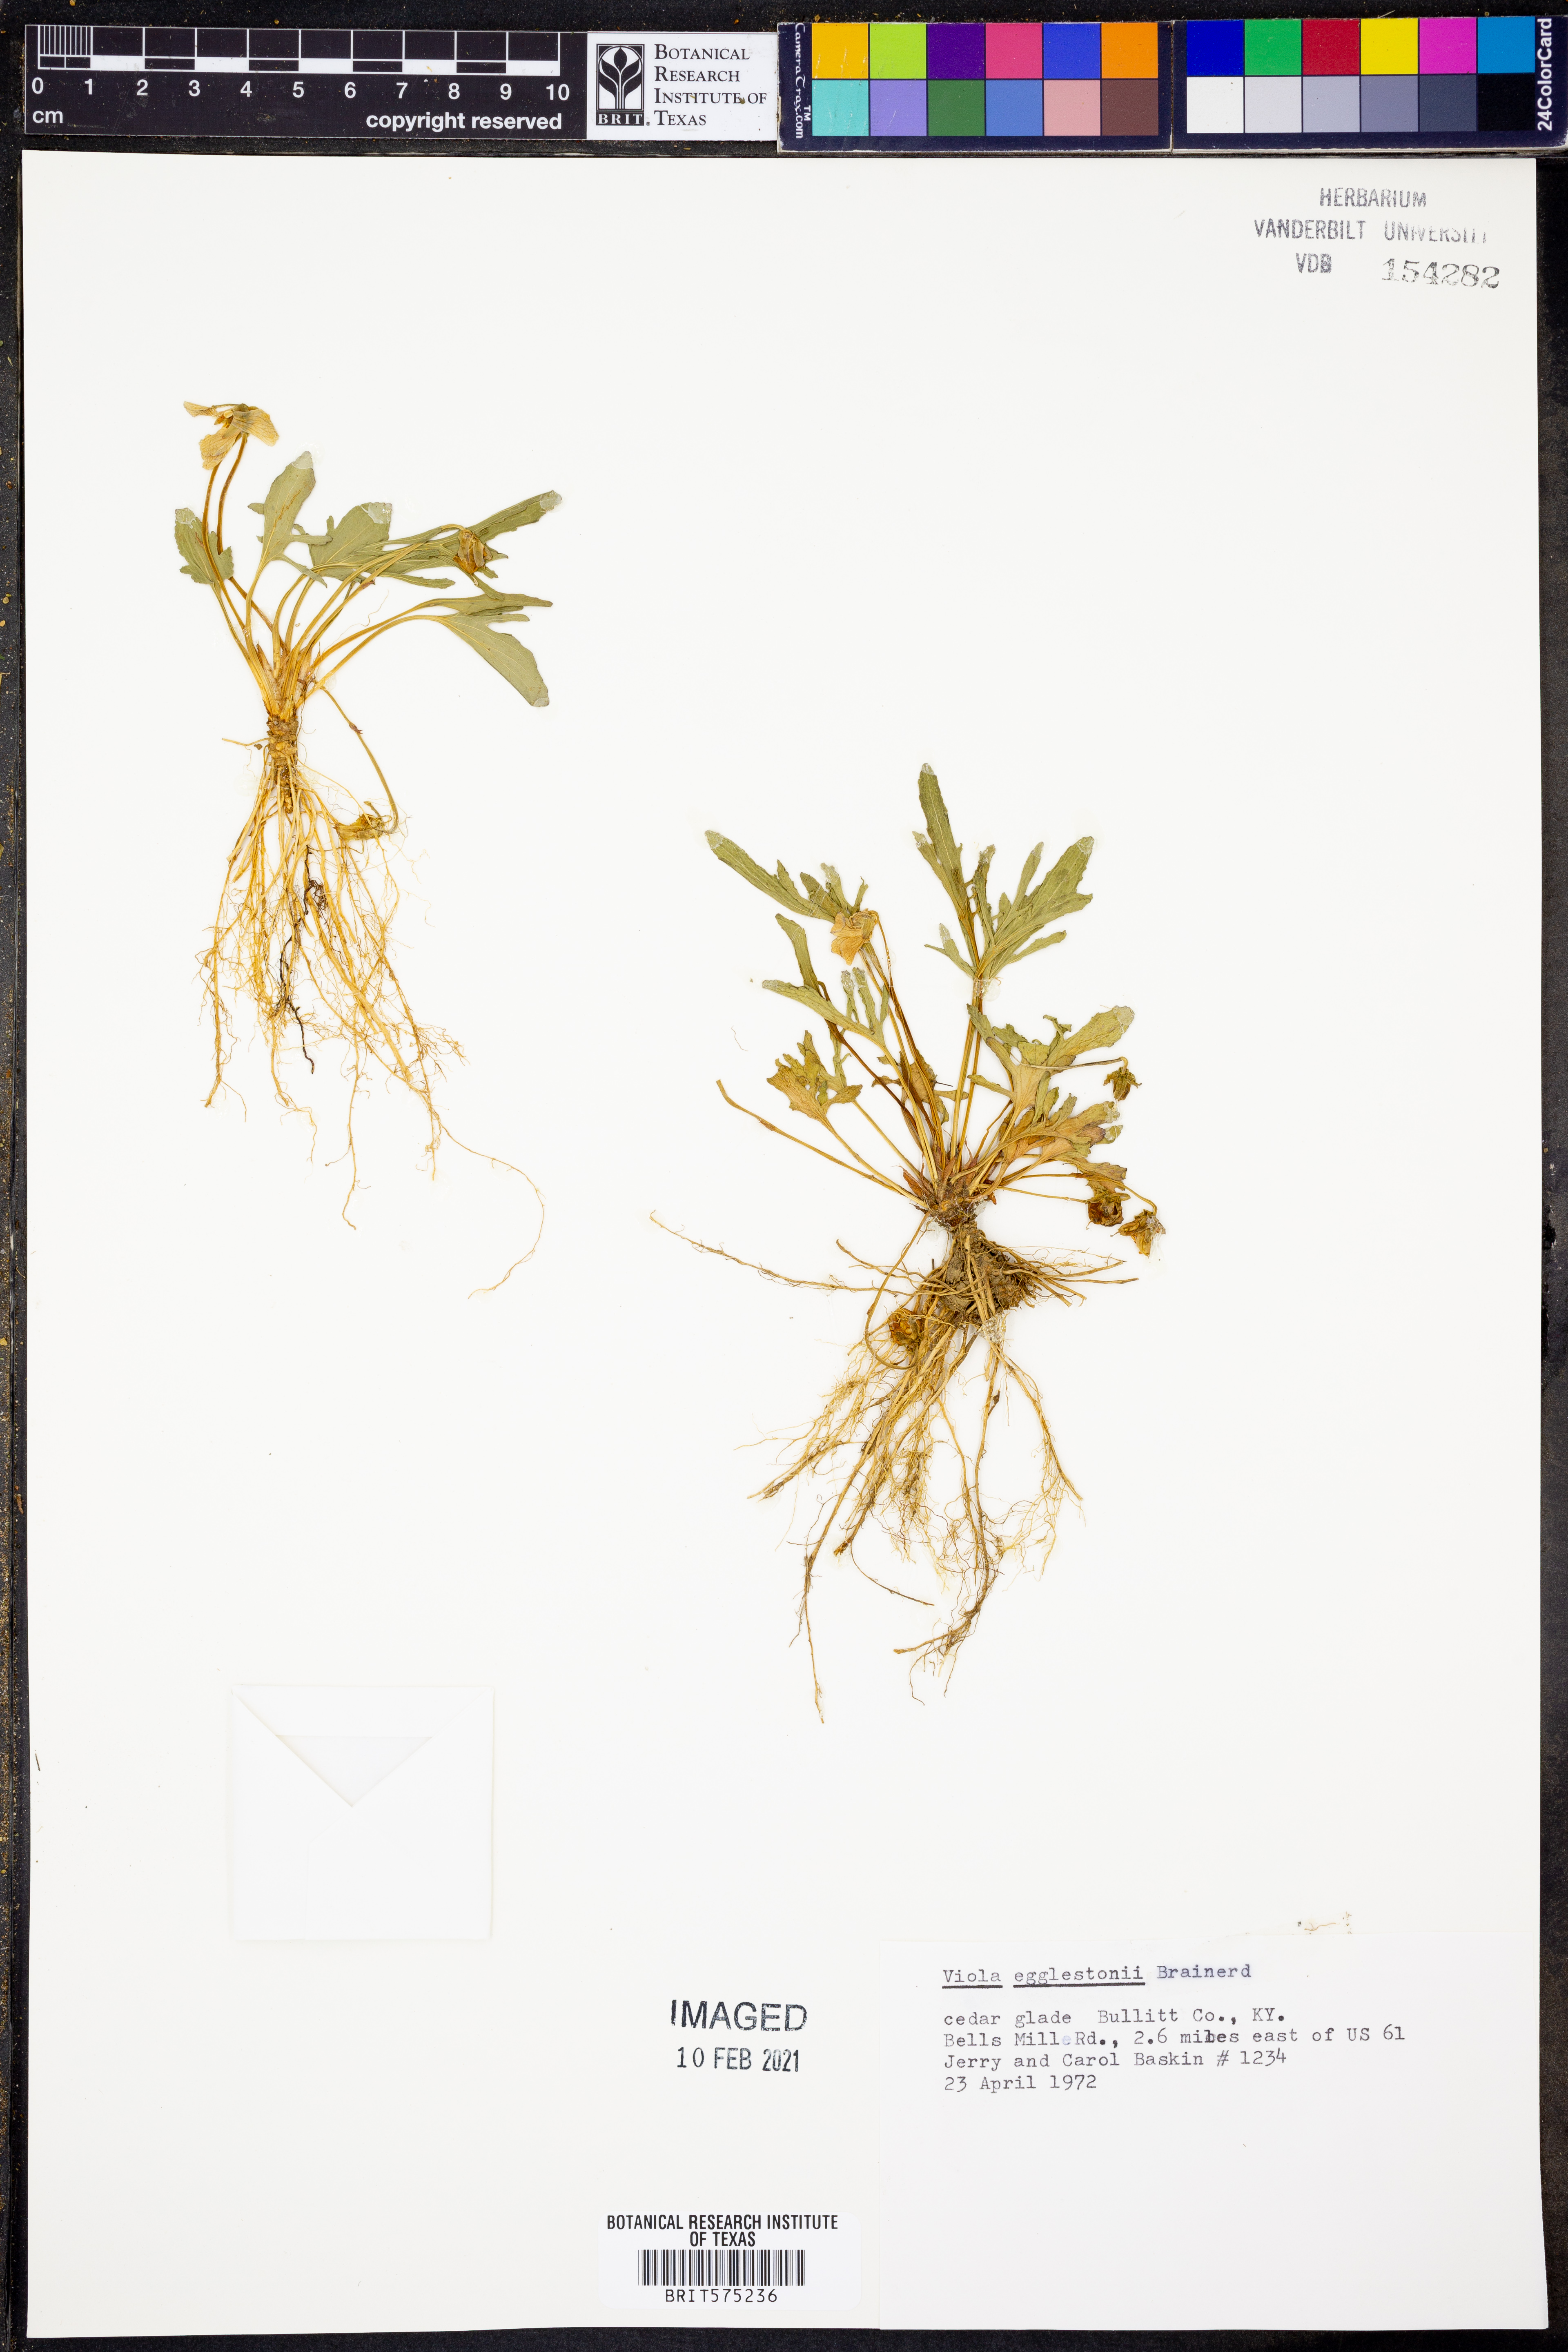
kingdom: Plantae
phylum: Tracheophyta
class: Magnoliopsida
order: Malpighiales
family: Violaceae
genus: Viola
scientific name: Viola egglestonii
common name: Glade violet
